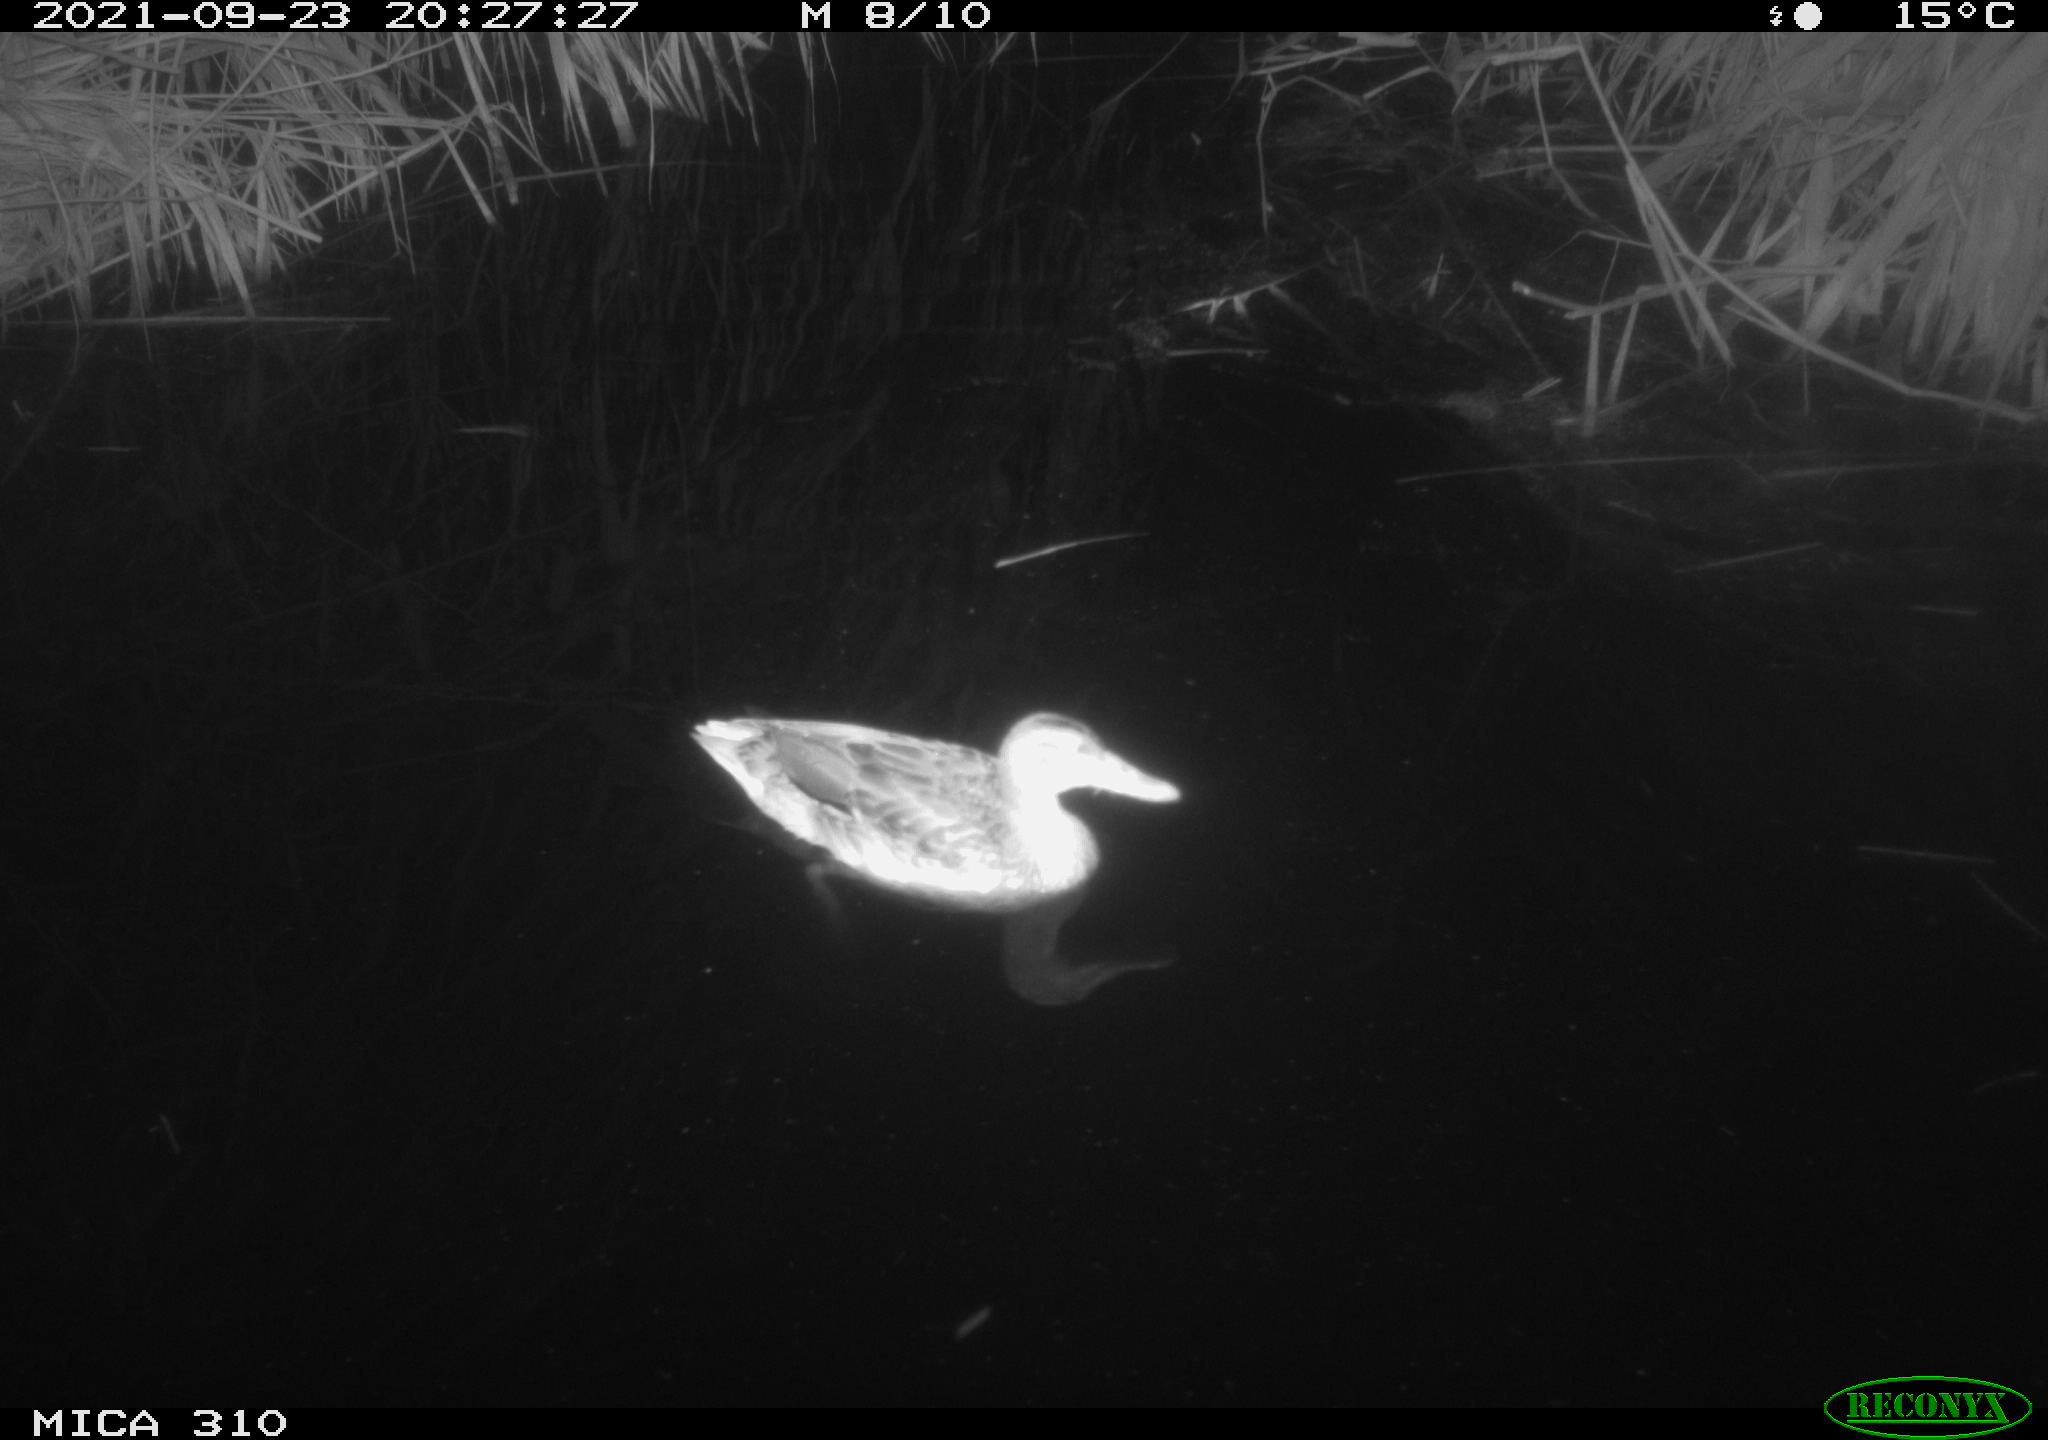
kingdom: Animalia
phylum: Chordata
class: Aves
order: Anseriformes
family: Anatidae
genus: Anas
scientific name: Anas platyrhynchos
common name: Mallard
